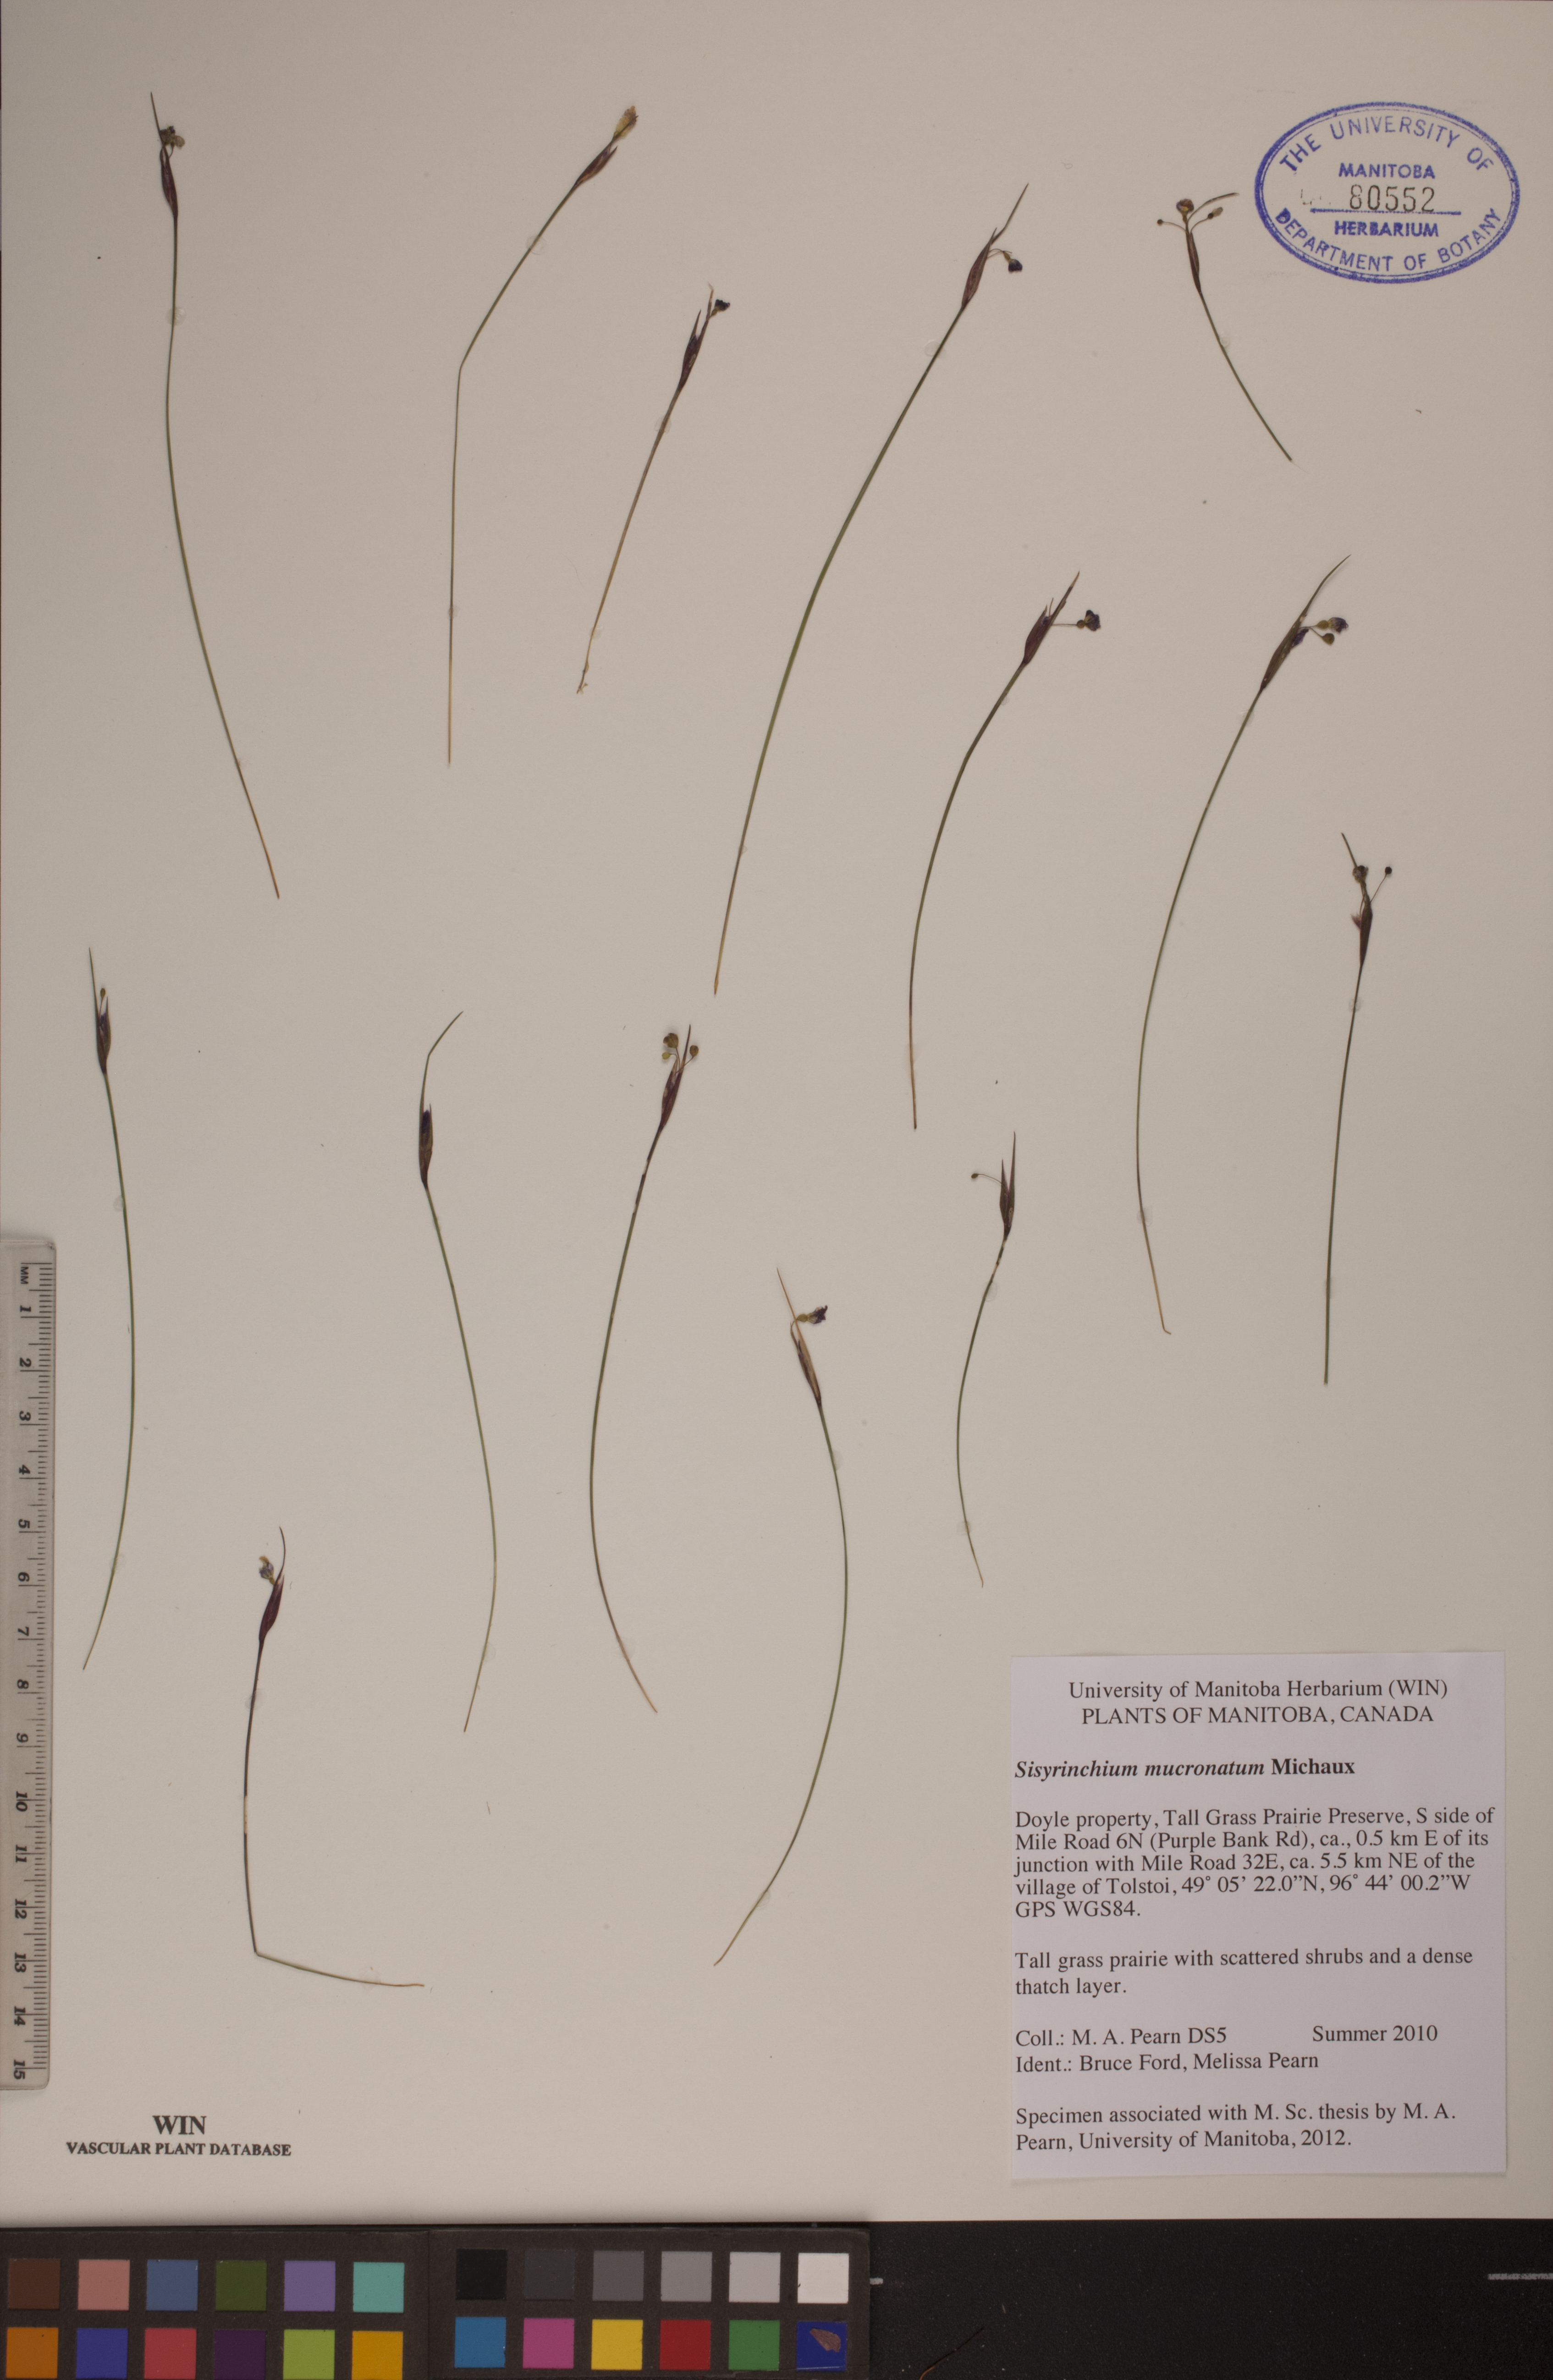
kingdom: Plantae
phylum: Tracheophyta
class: Liliopsida
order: Asparagales
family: Iridaceae
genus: Sisyrinchium
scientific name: Sisyrinchium mucronatum
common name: Eastern blue-eyed-grass
